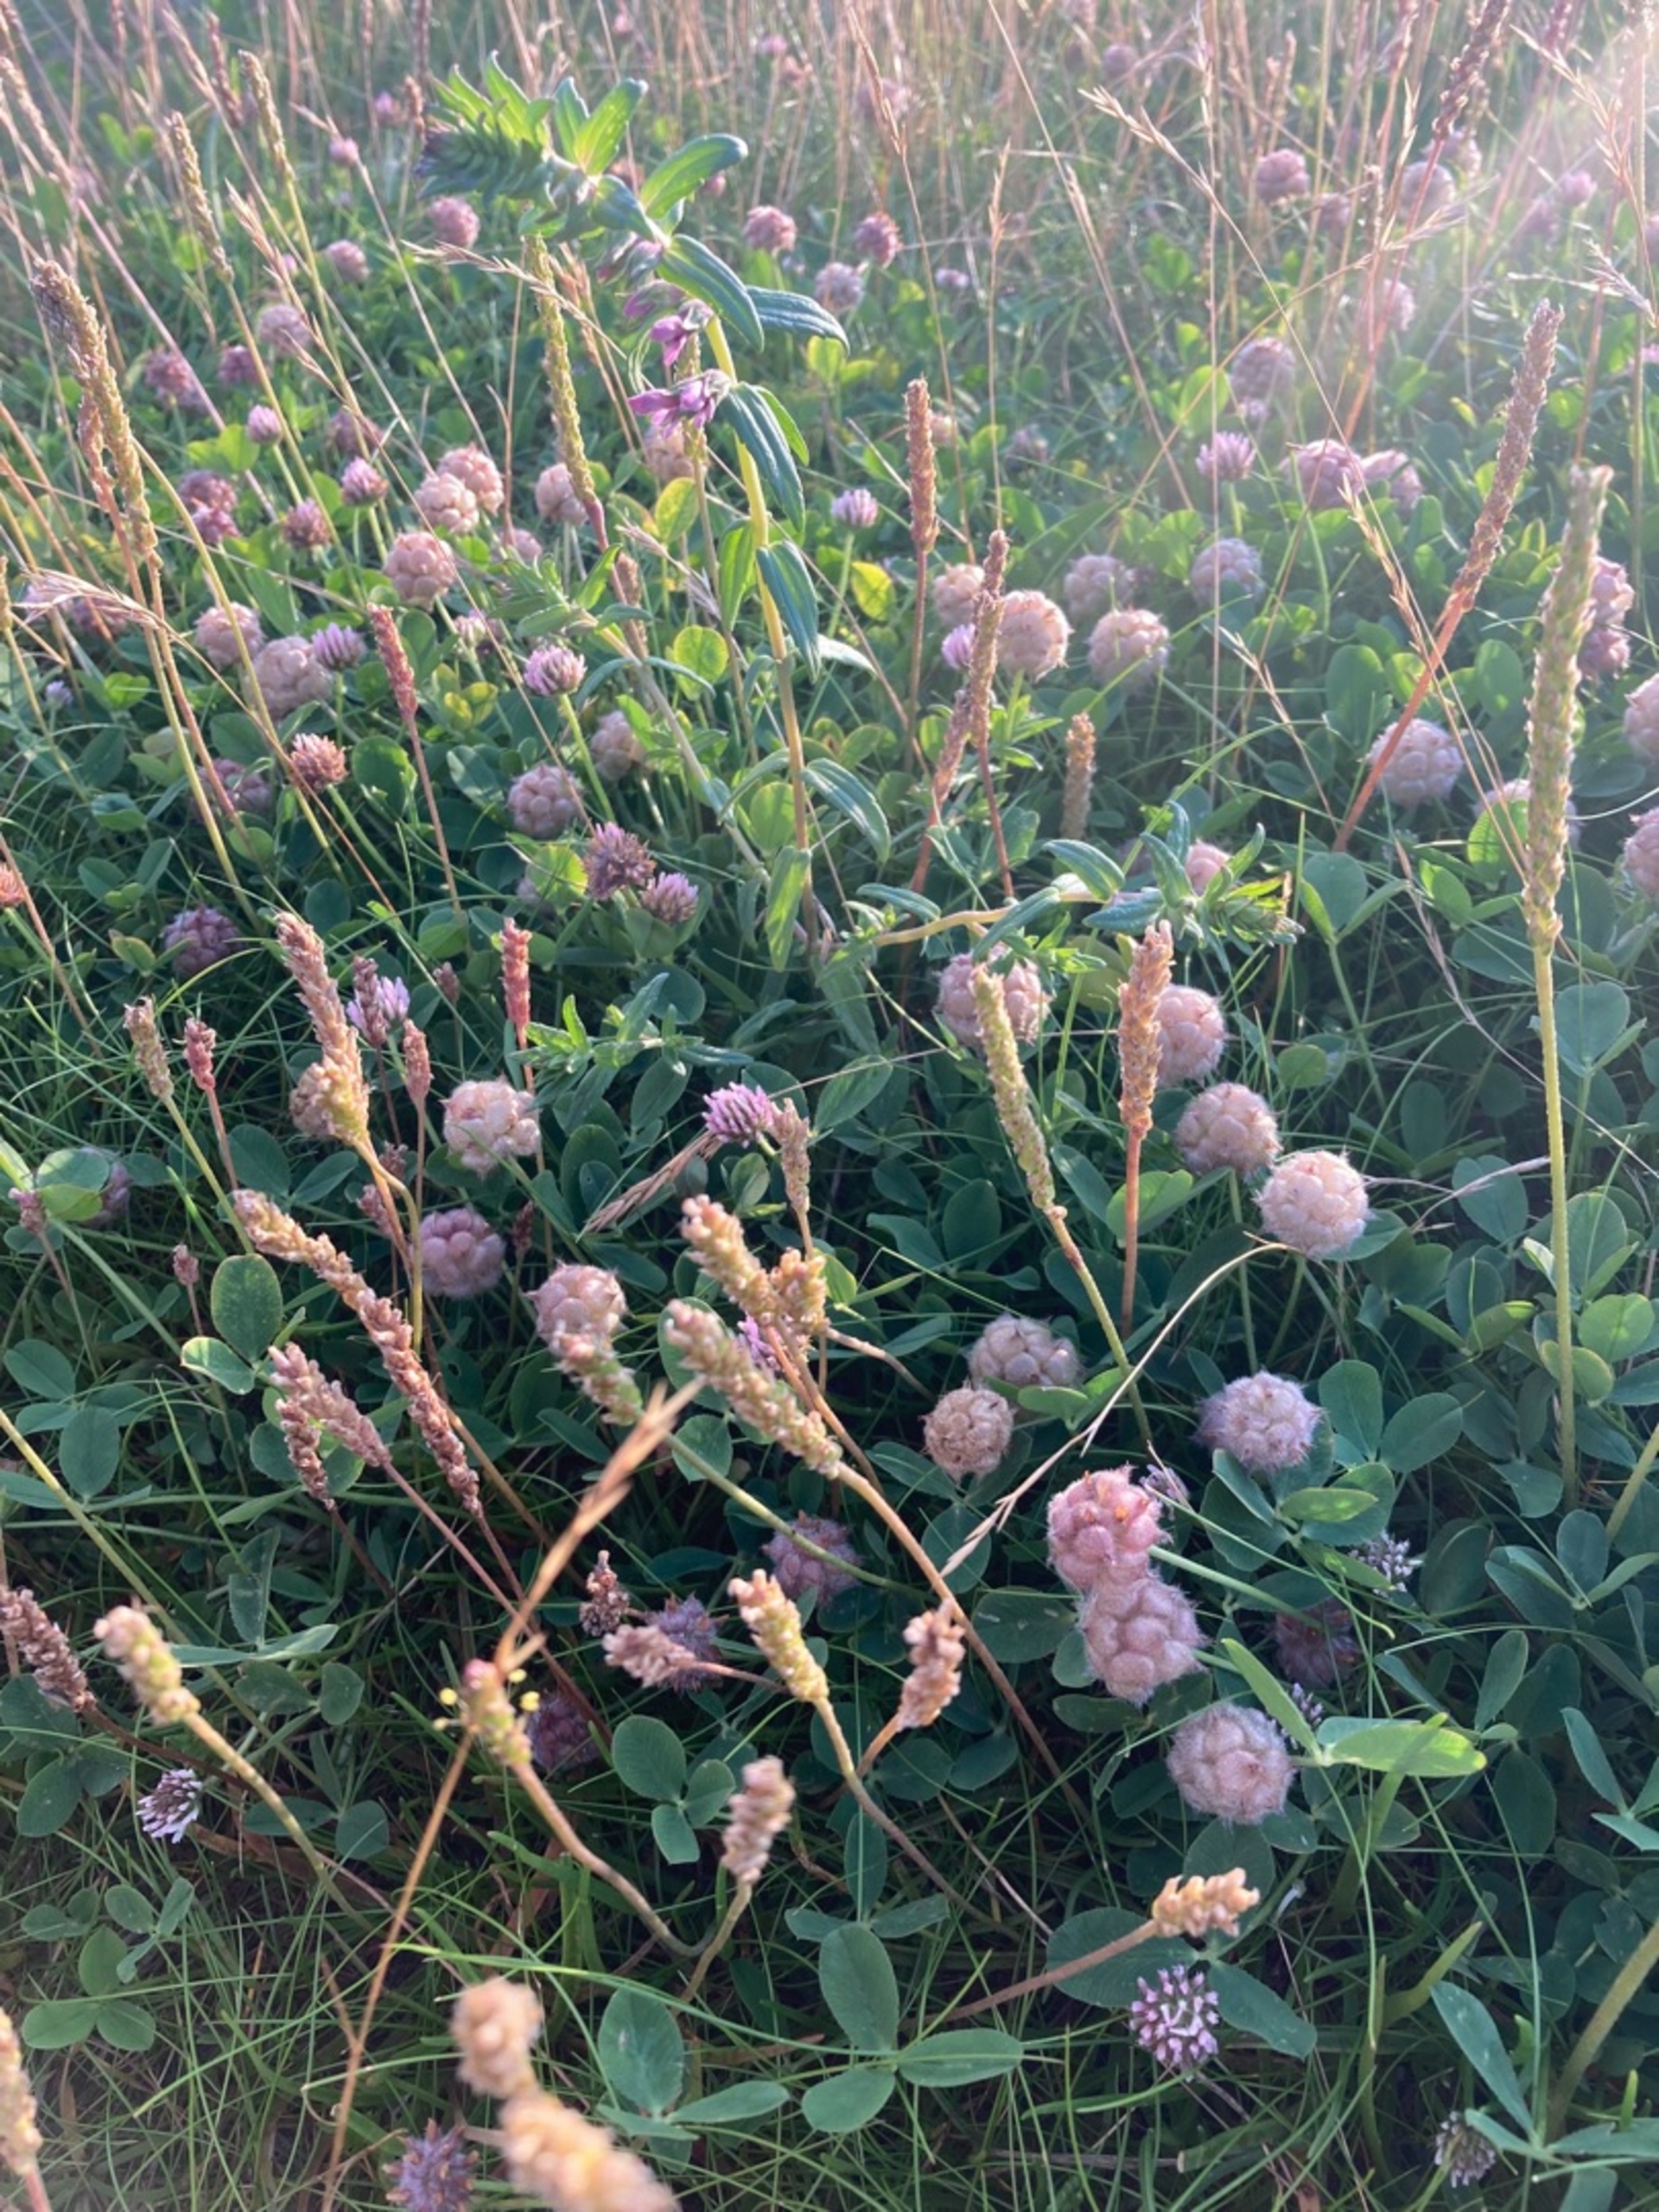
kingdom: Plantae
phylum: Tracheophyta
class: Magnoliopsida
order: Fabales
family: Fabaceae
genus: Trifolium
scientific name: Trifolium fragiferum
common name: Jordbær-kløver
